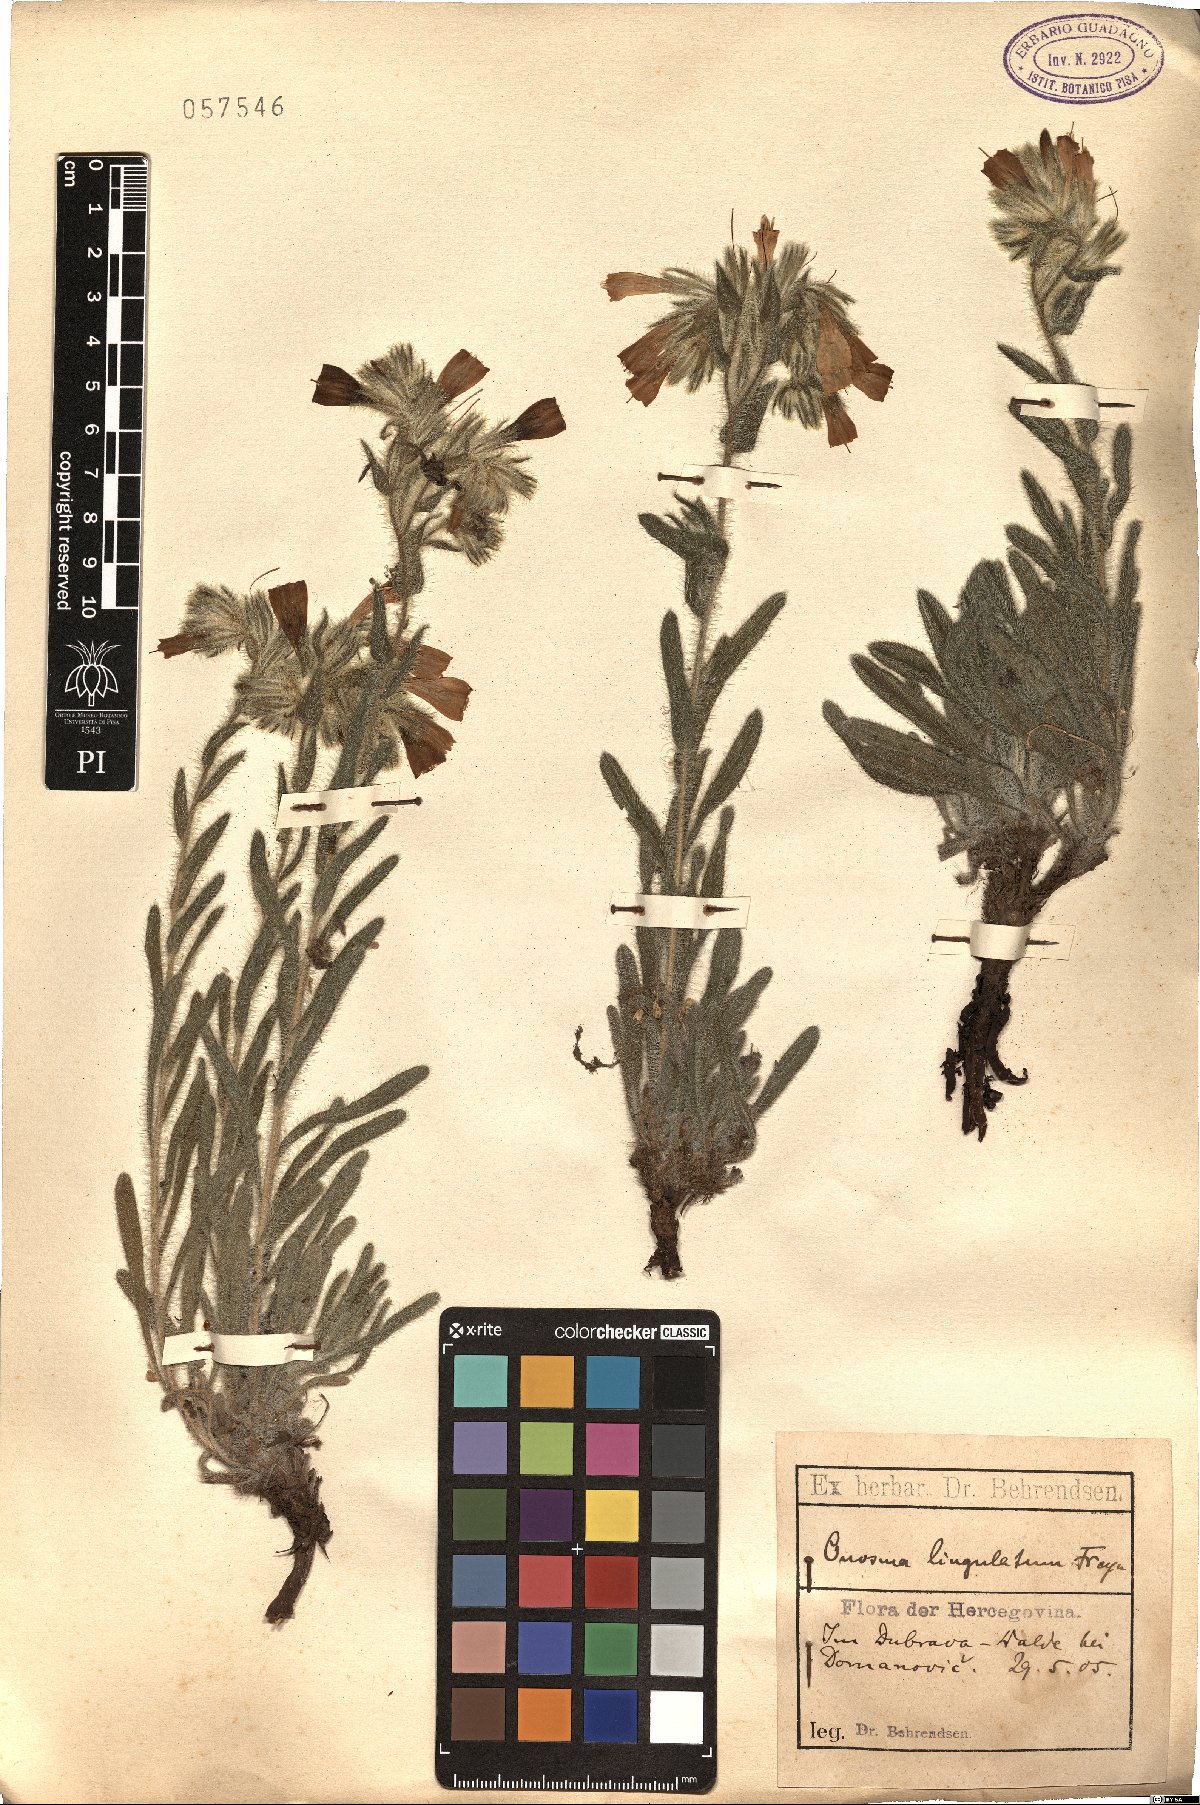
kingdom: Plantae
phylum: Tracheophyta
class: Magnoliopsida
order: Boraginales
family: Boraginaceae
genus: Onosma
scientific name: Onosma arenaria
